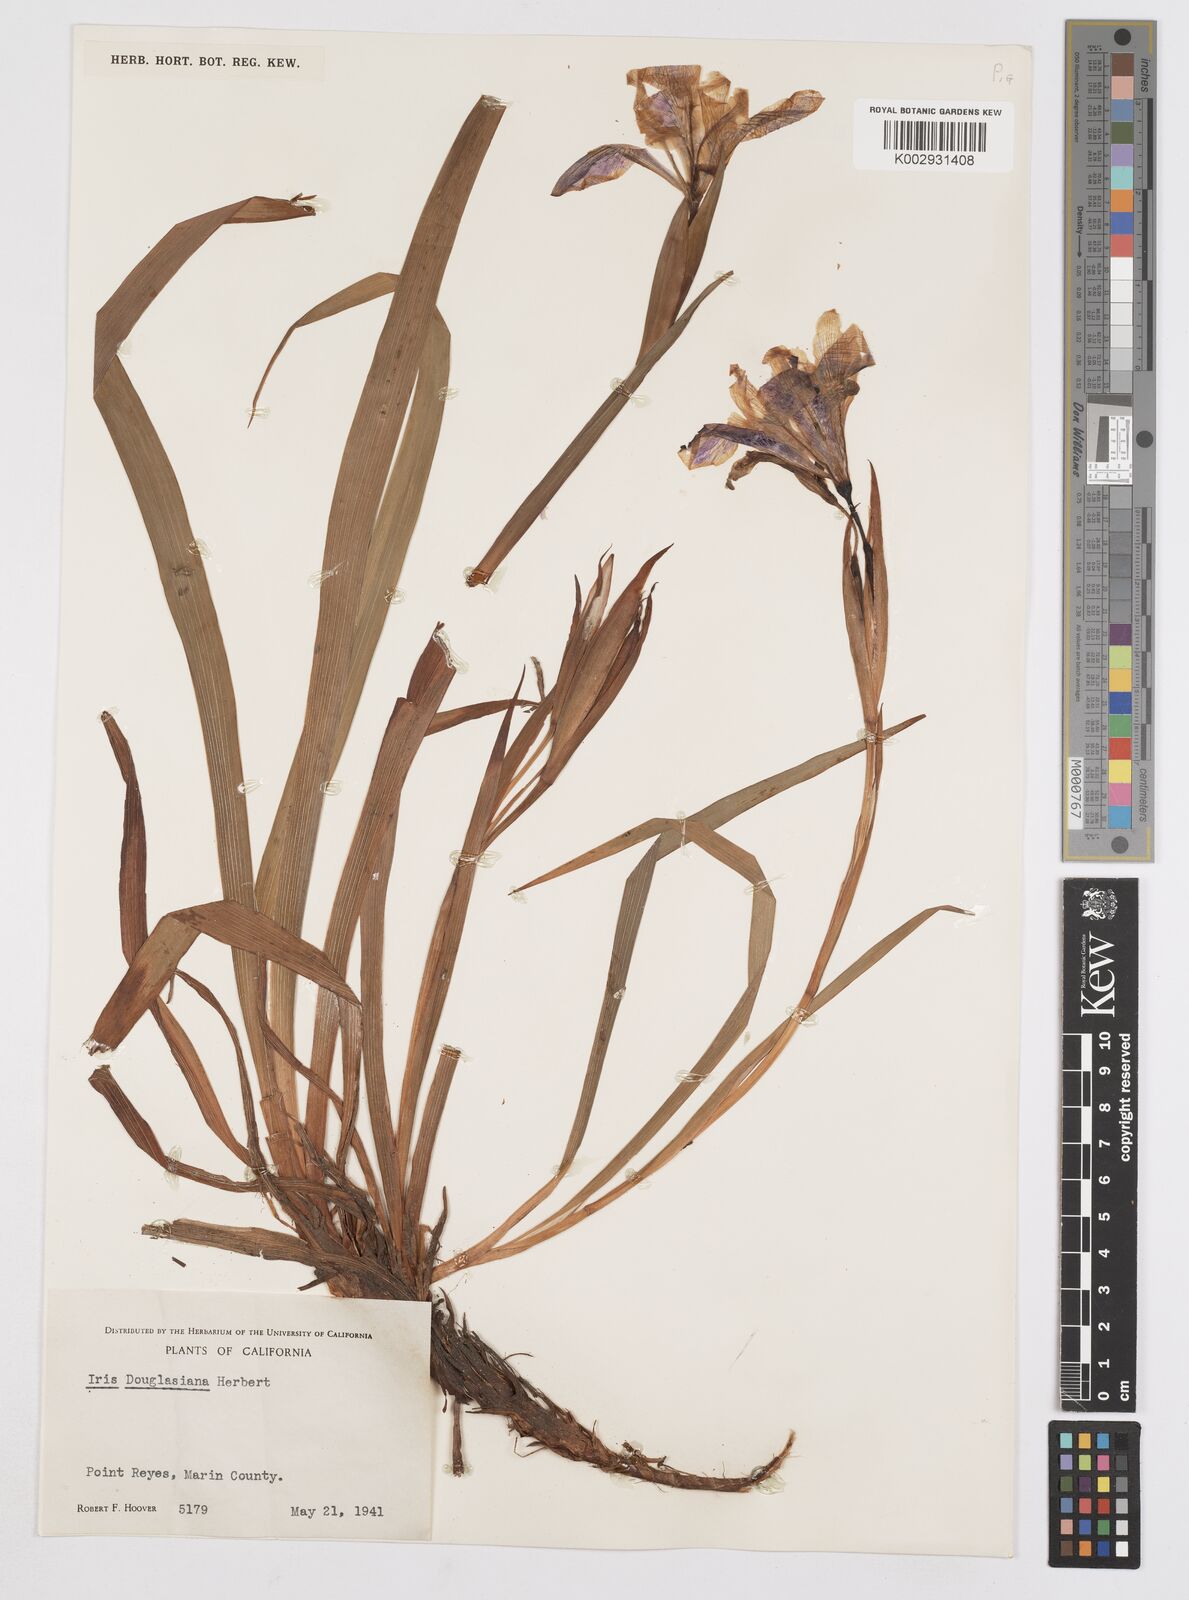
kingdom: Plantae
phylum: Tracheophyta
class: Liliopsida
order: Asparagales
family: Iridaceae
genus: Iris
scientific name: Iris douglasiana
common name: Marin iris
